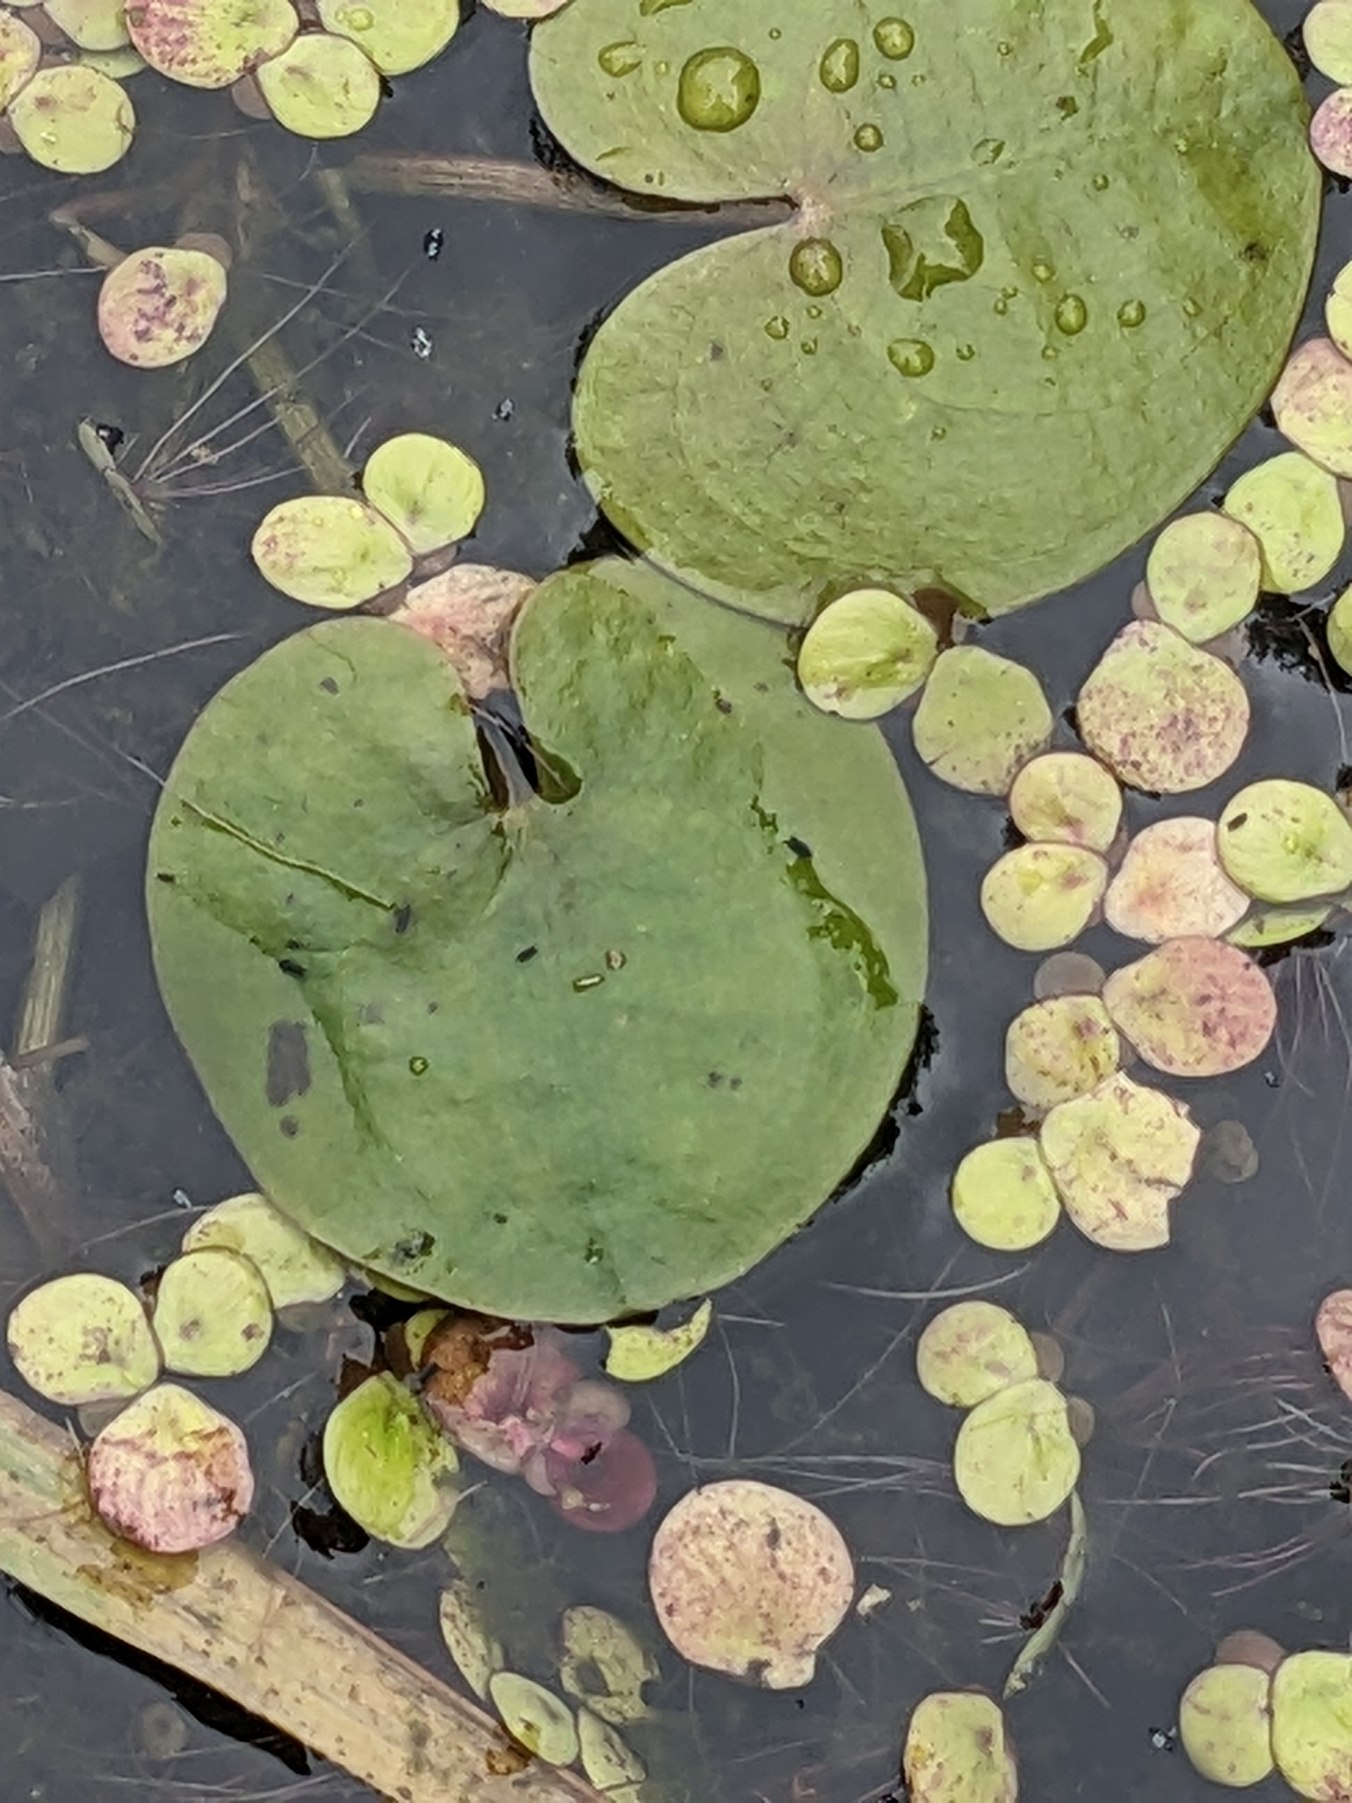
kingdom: Plantae
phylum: Tracheophyta
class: Liliopsida
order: Alismatales
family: Hydrocharitaceae
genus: Hydrocharis
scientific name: Hydrocharis morsus-ranae
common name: Frøbid
